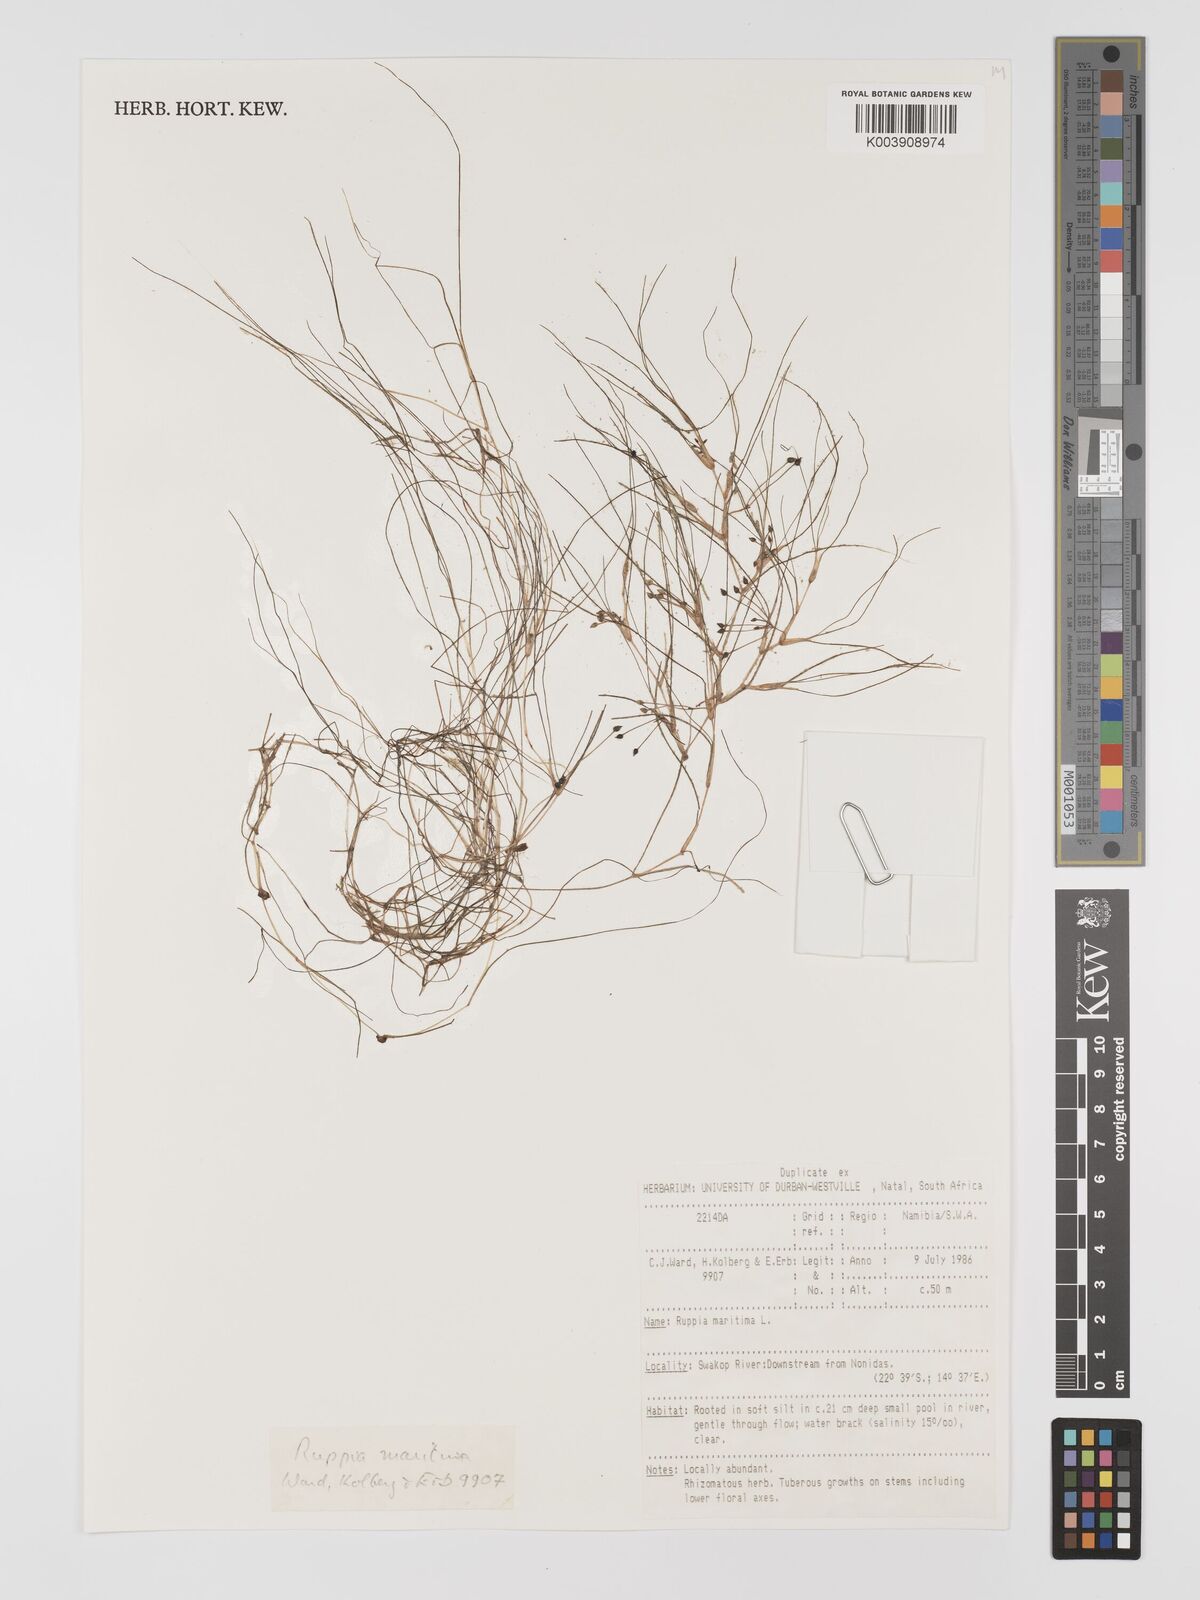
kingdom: Plantae
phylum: Tracheophyta
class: Liliopsida
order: Alismatales
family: Ruppiaceae
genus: Ruppia
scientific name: Ruppia maritima
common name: Beaked tasselweed
